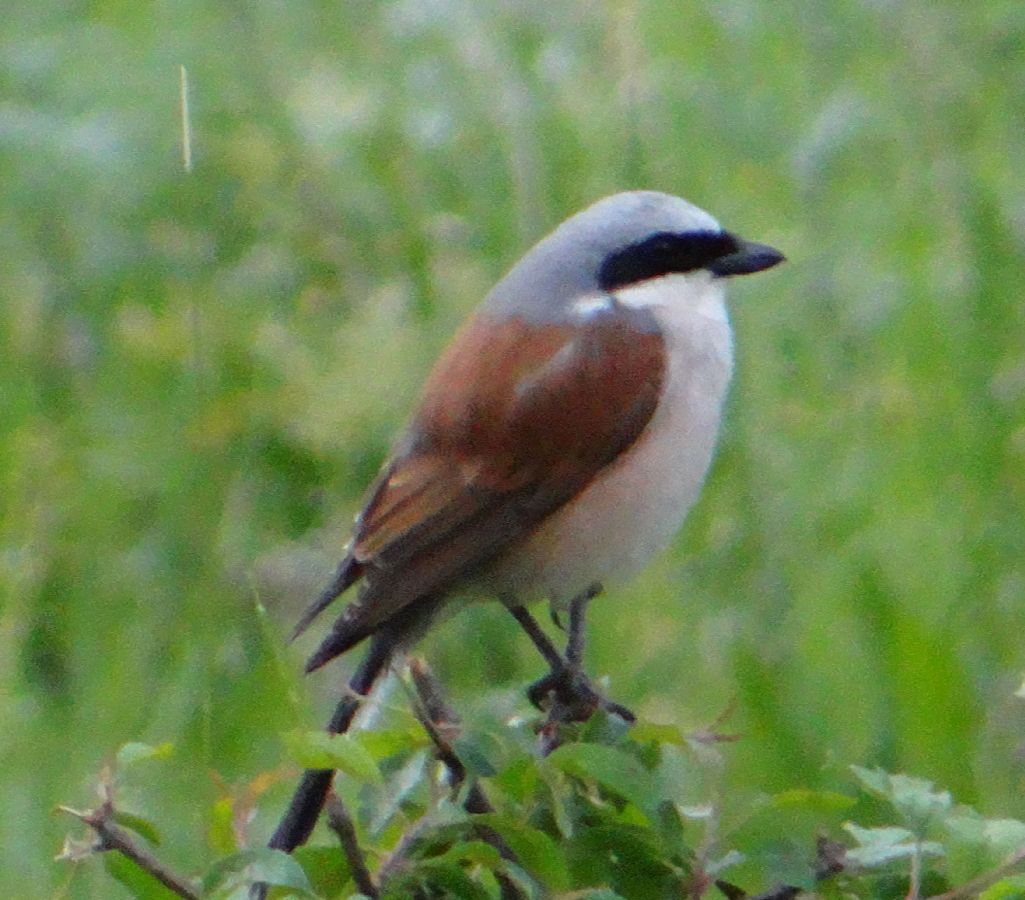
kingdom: Animalia
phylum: Chordata
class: Aves
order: Passeriformes
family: Laniidae
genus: Lanius
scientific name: Lanius collurio
